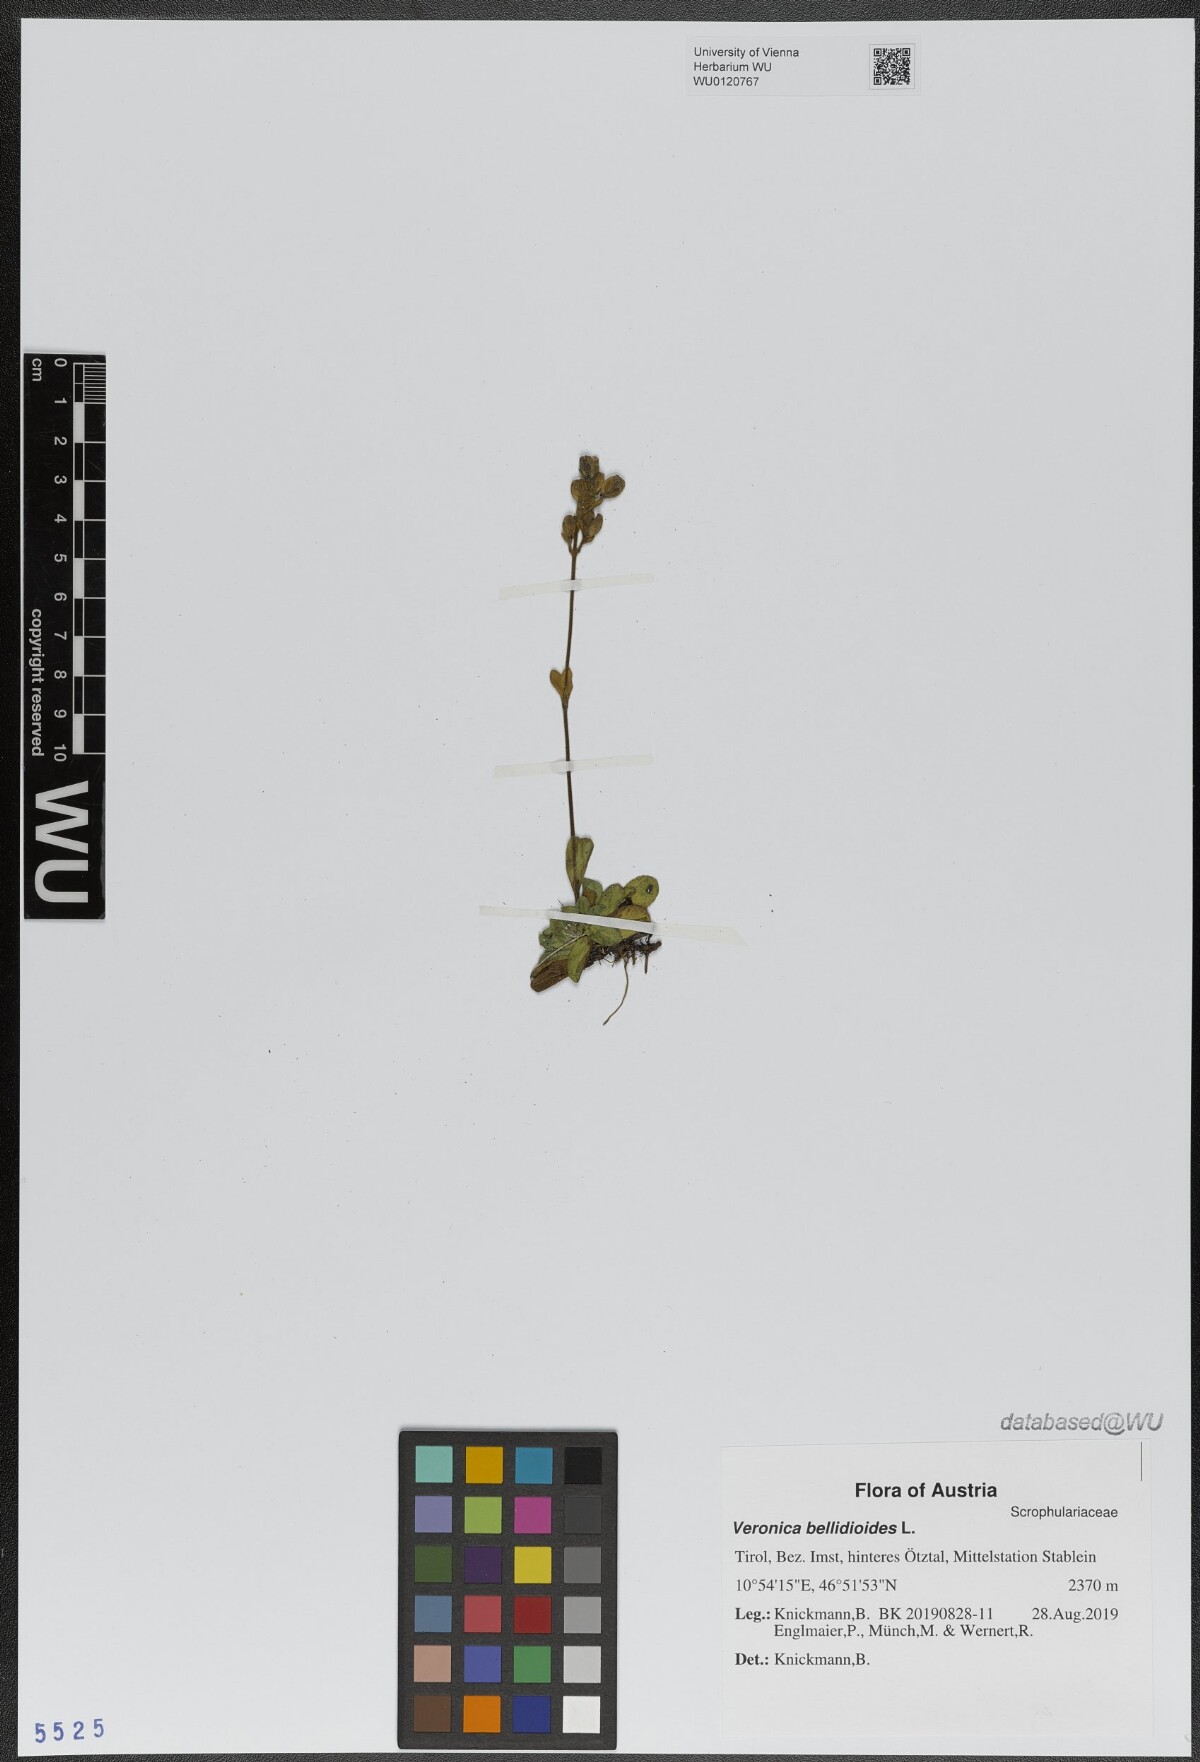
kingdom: Plantae
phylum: Tracheophyta
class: Magnoliopsida
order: Lamiales
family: Plantaginaceae
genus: Veronica
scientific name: Veronica bellidioides
